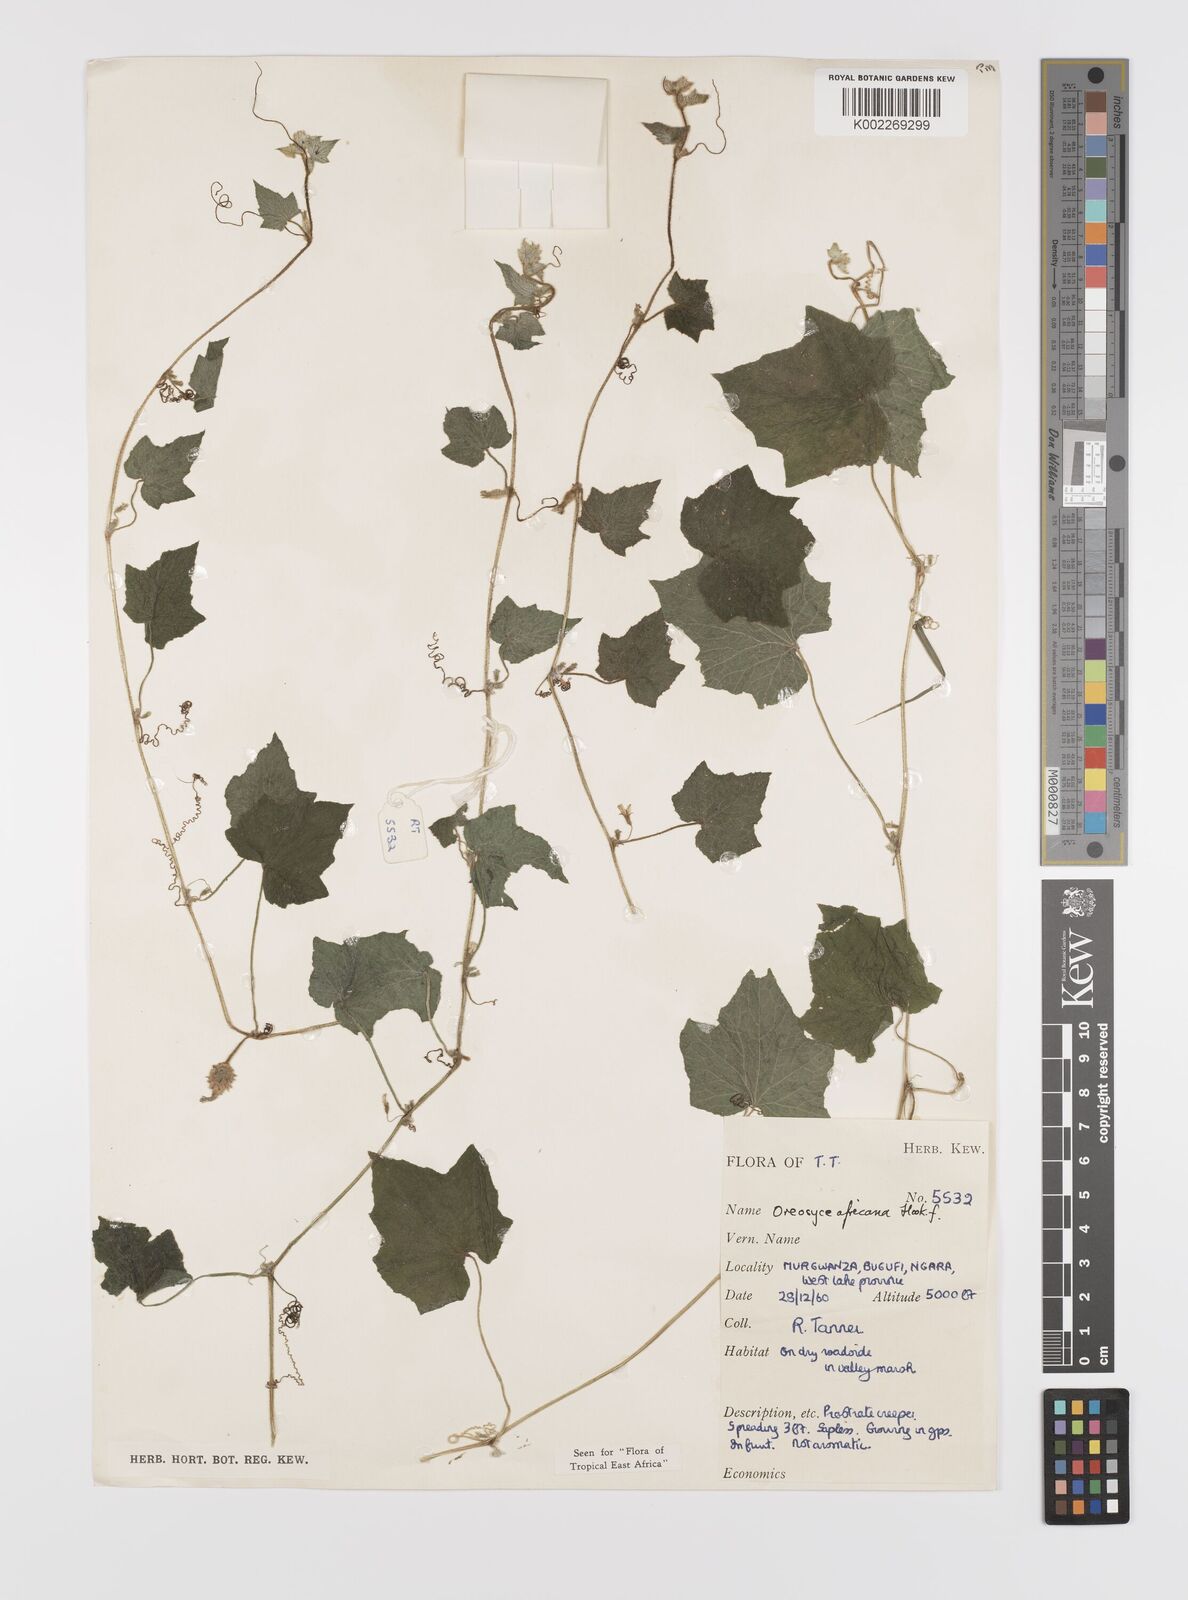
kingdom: Plantae
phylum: Tracheophyta
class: Magnoliopsida
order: Cucurbitales
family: Cucurbitaceae
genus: Cucumis
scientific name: Cucumis oreosyce
